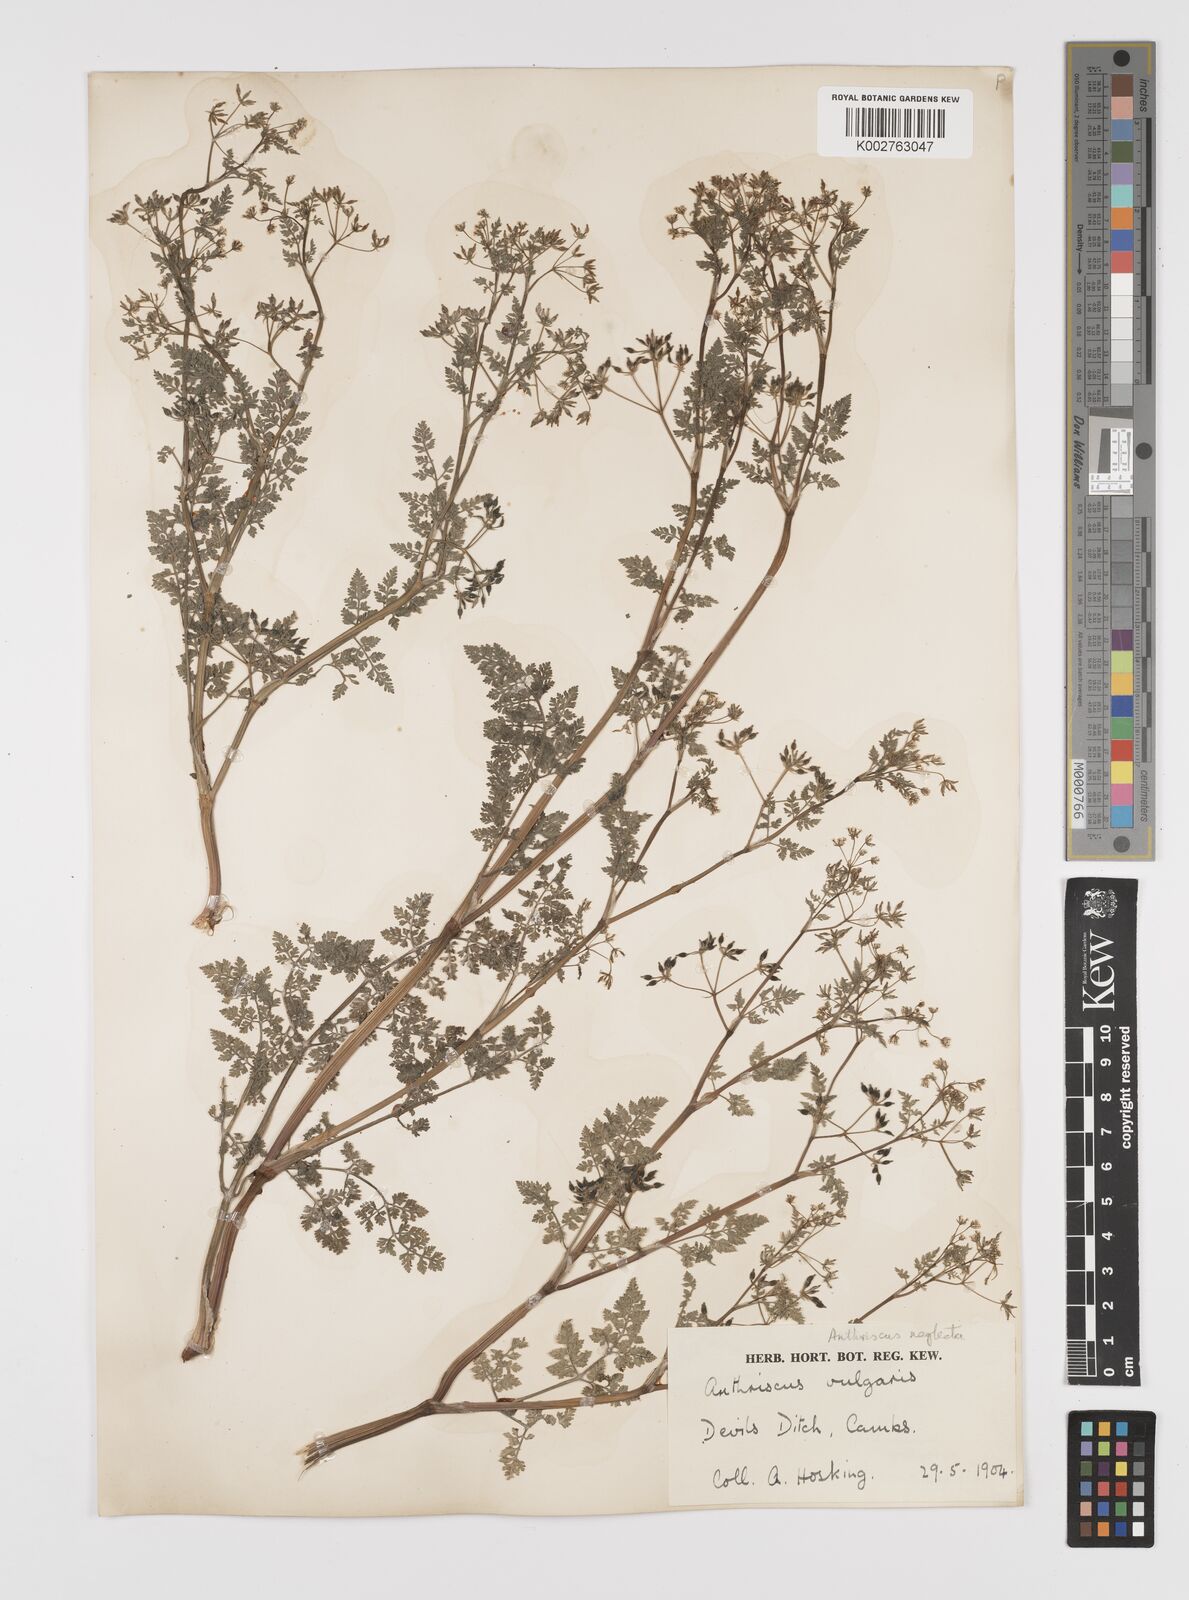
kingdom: Plantae
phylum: Tracheophyta
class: Magnoliopsida
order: Apiales
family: Apiaceae
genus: Anthriscus
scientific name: Anthriscus caucalis
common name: Bur chervil
